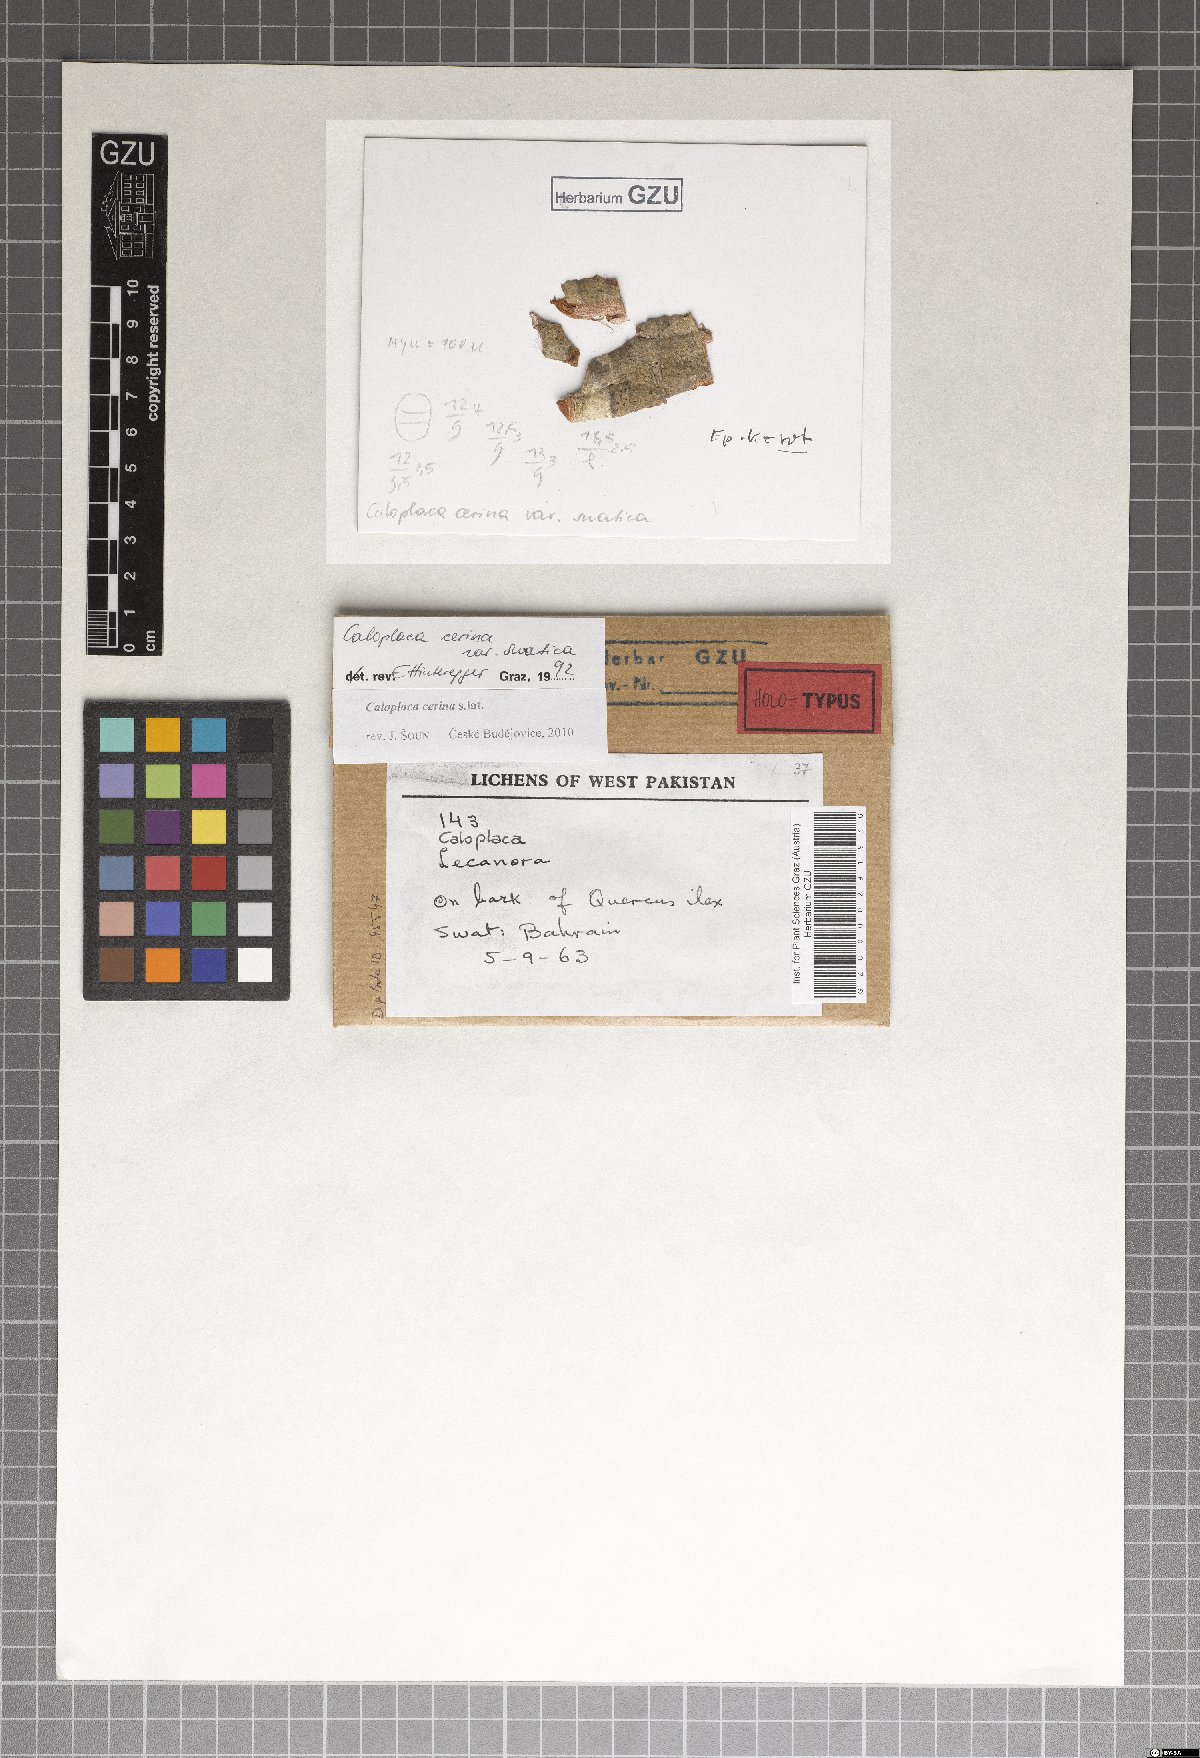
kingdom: Fungi
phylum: Ascomycota
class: Lecanoromycetes
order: Teloschistales
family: Teloschistaceae
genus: Caloplaca
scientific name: Caloplaca cerina
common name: Gray-rimmed firedot lichen
